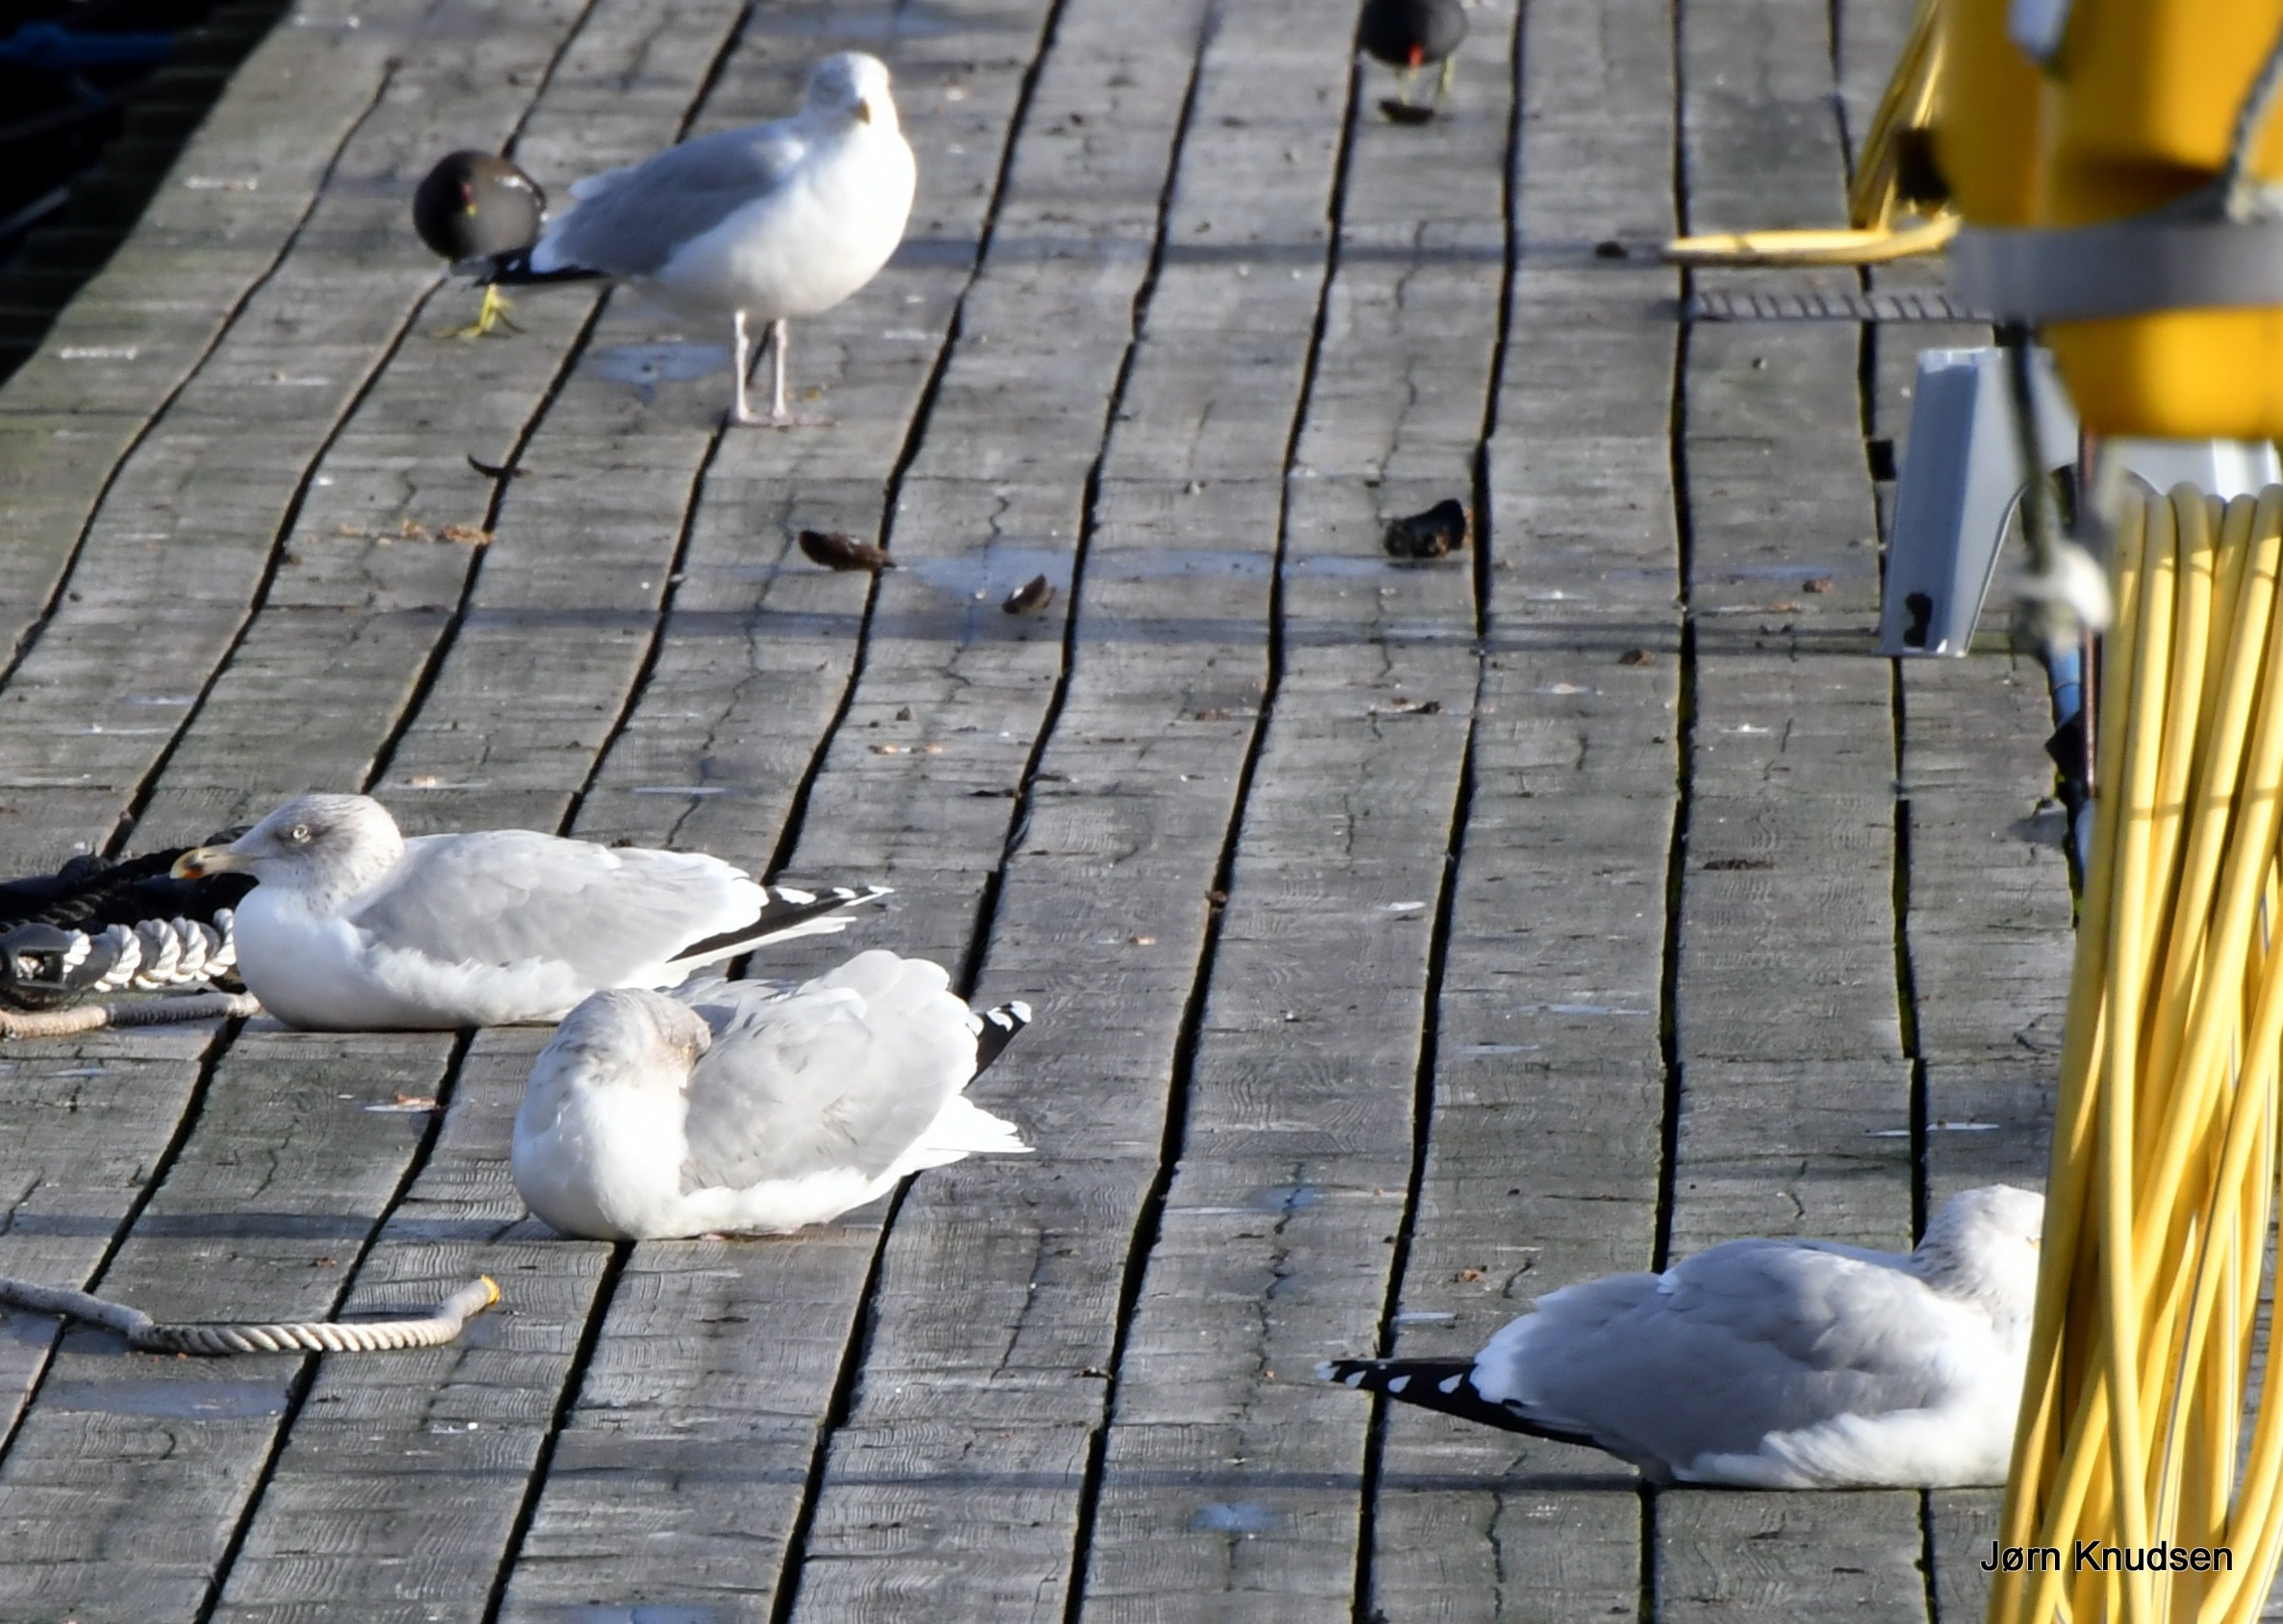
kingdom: Animalia
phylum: Chordata
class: Aves
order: Charadriiformes
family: Laridae
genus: Larus
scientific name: Larus argentatus
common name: Sølvmåge
